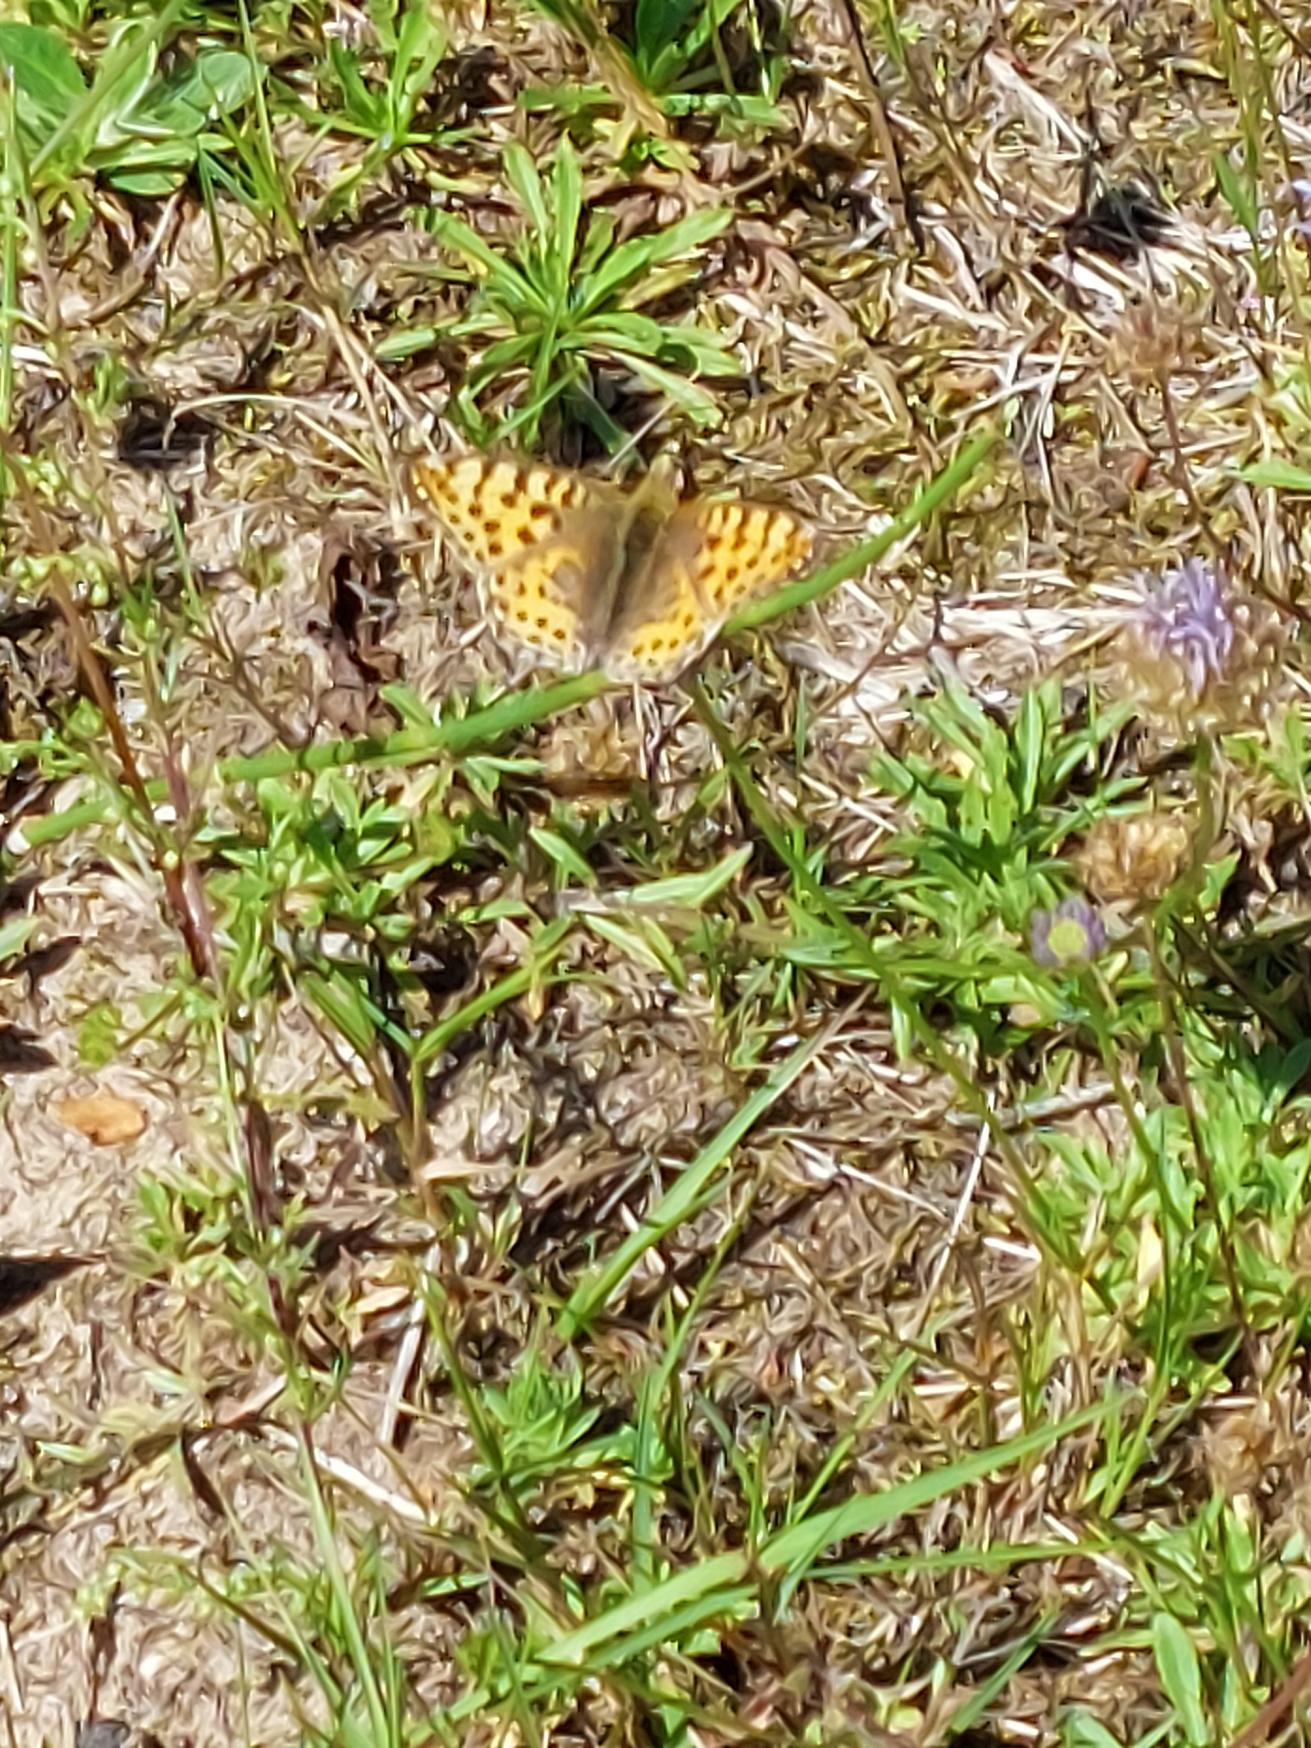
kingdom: Animalia
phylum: Arthropoda
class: Insecta
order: Lepidoptera
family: Nymphalidae
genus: Issoria
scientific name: Issoria lathonia
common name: Storplettet perlemorsommerfugl
